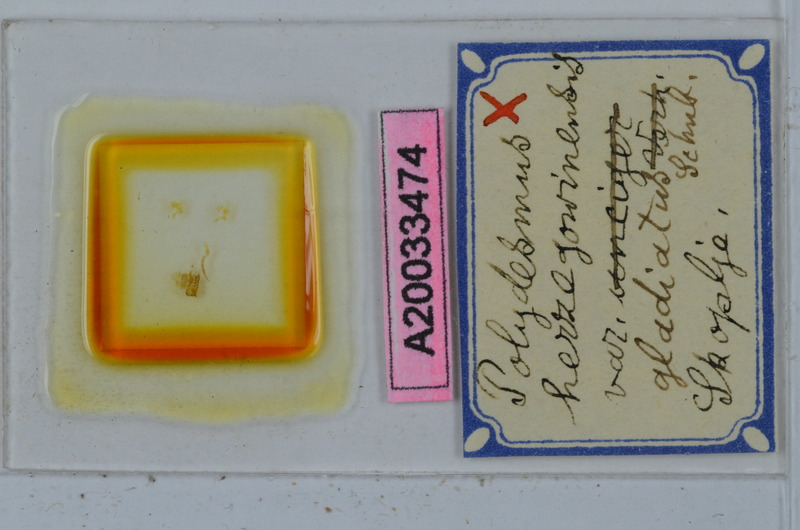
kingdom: Animalia
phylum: Arthropoda
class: Diplopoda
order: Polydesmida
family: Polydesmidae
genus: Polydesmus
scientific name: Polydesmus herzogowinensis
